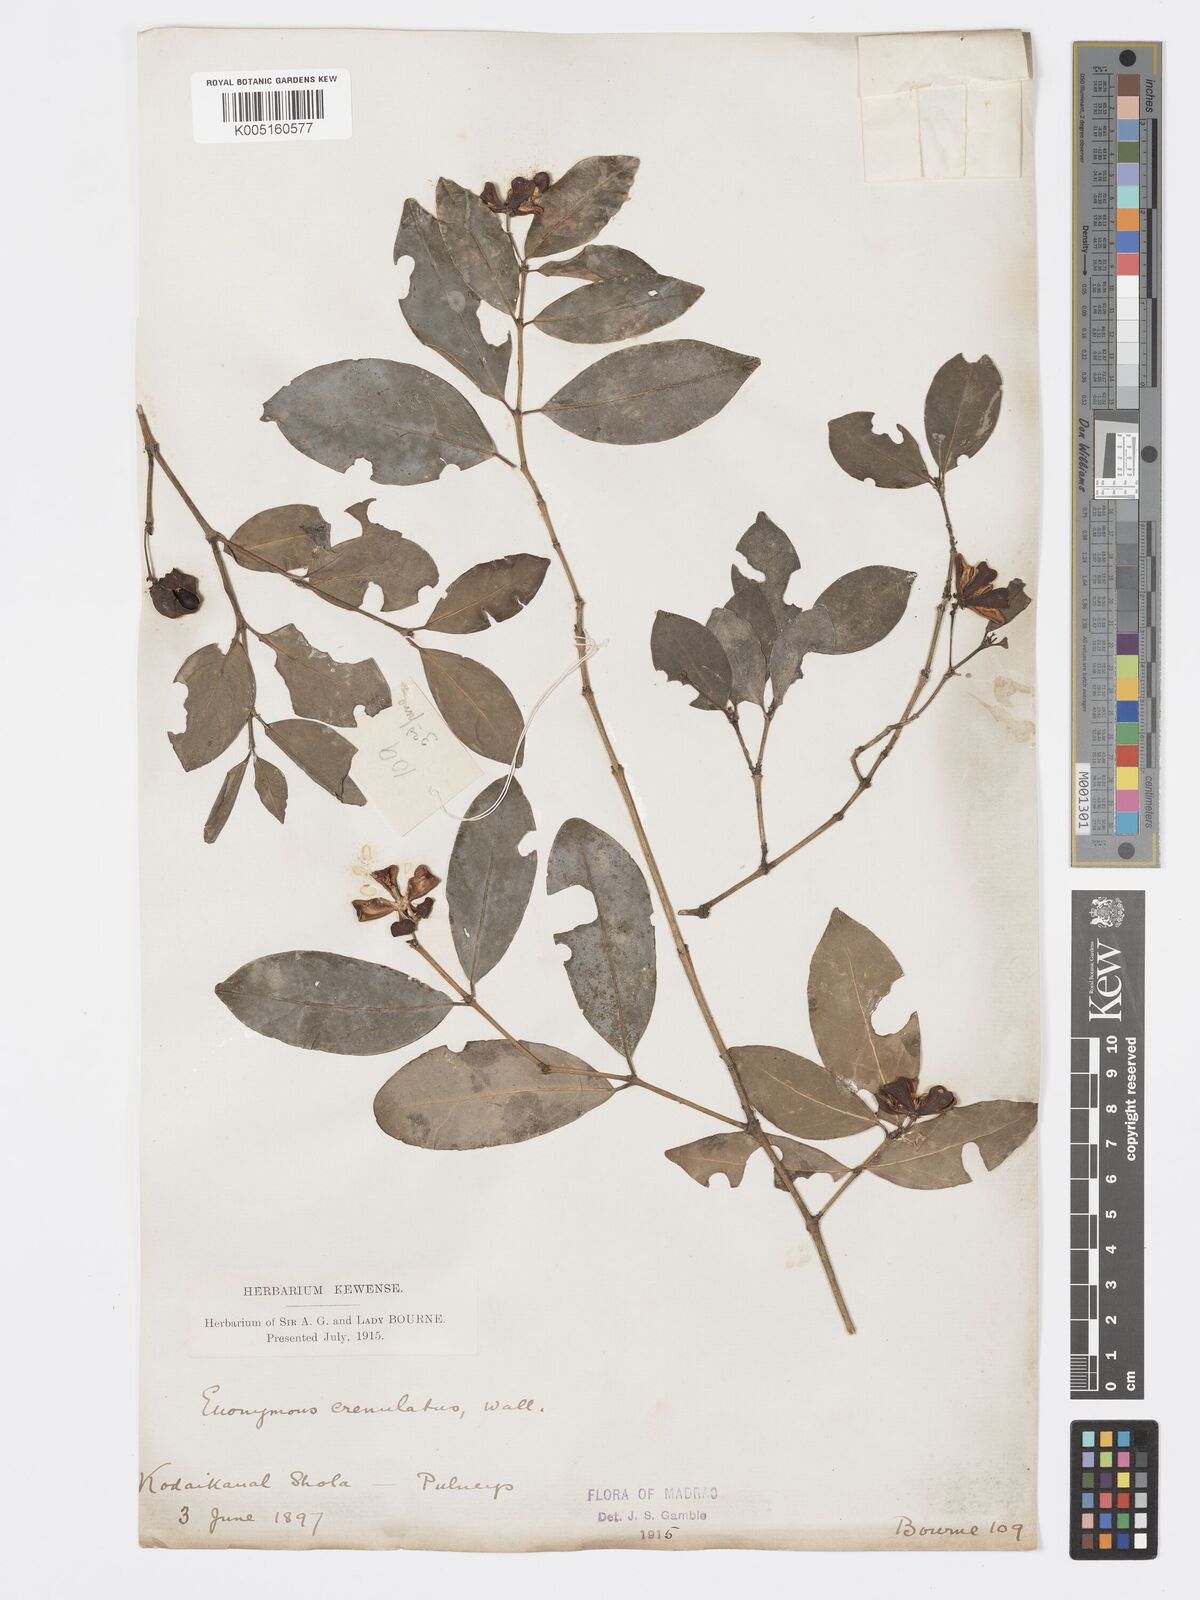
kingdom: Plantae
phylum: Tracheophyta
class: Magnoliopsida
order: Celastrales
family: Celastraceae
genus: Euonymus
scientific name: Euonymus crenulatus
